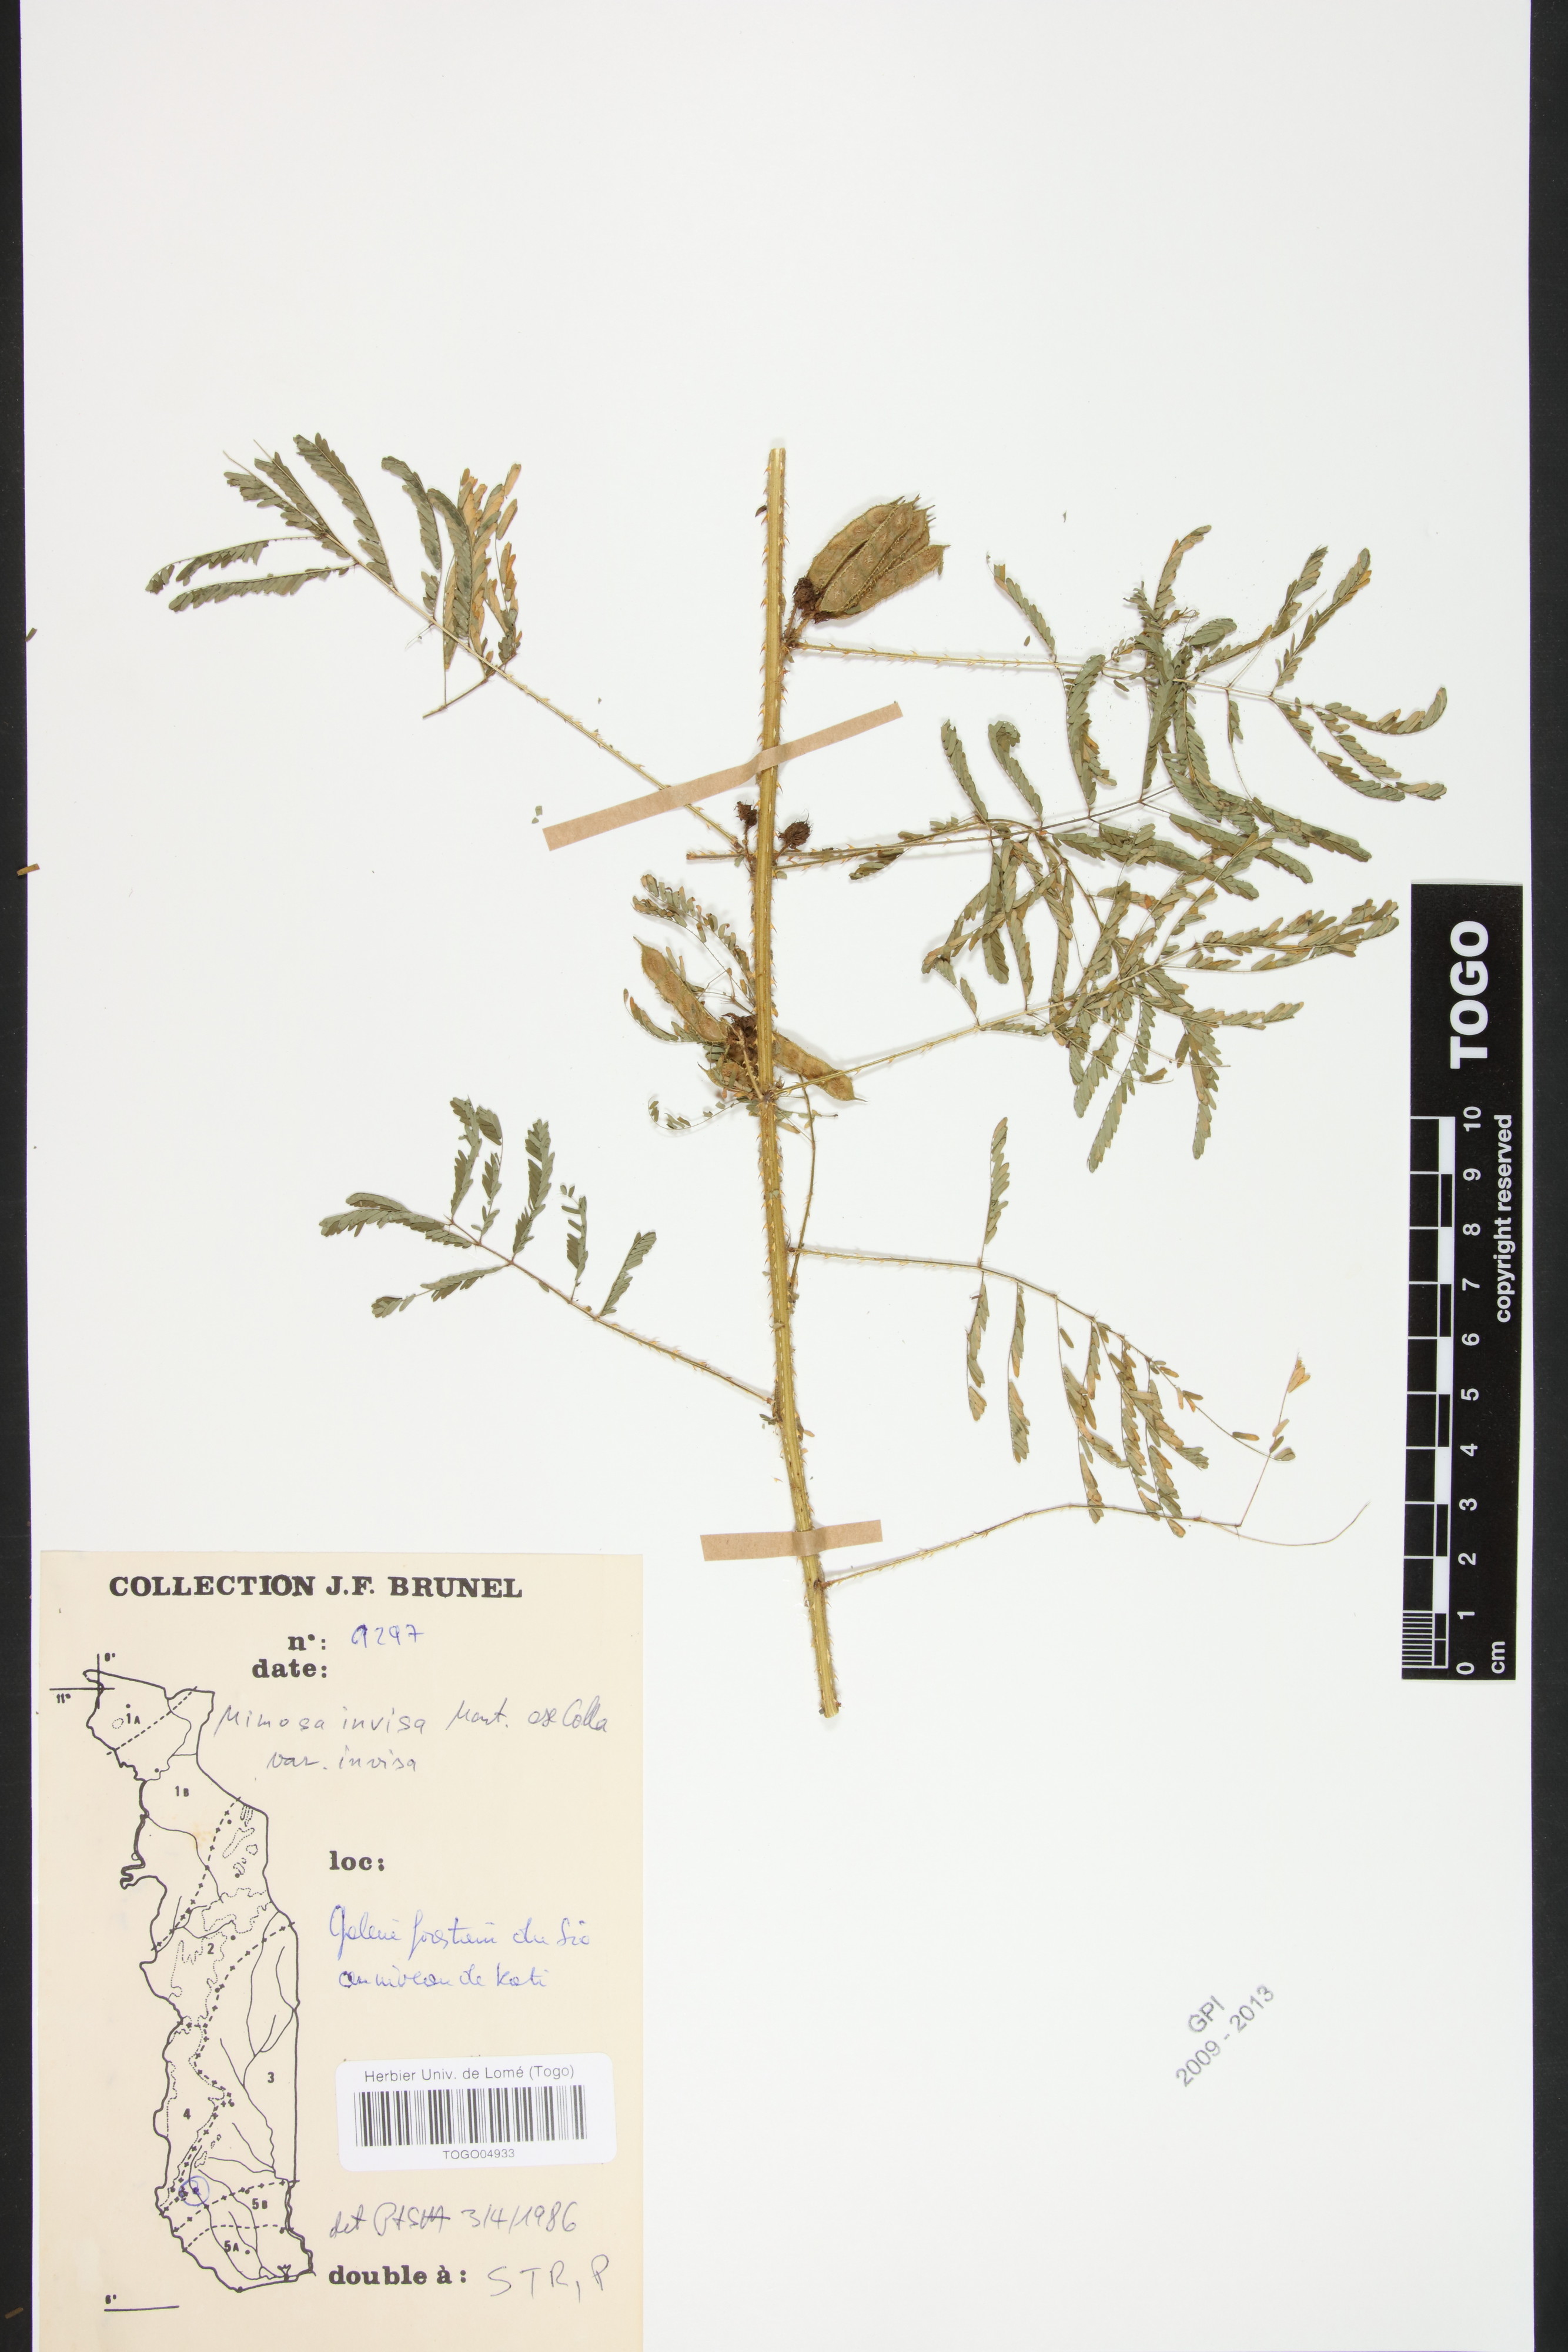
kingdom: Plantae
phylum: Tracheophyta
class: Magnoliopsida
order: Fabales
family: Fabaceae
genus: Mimosa
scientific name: Mimosa invisa
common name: Creeping sensitive-plant
